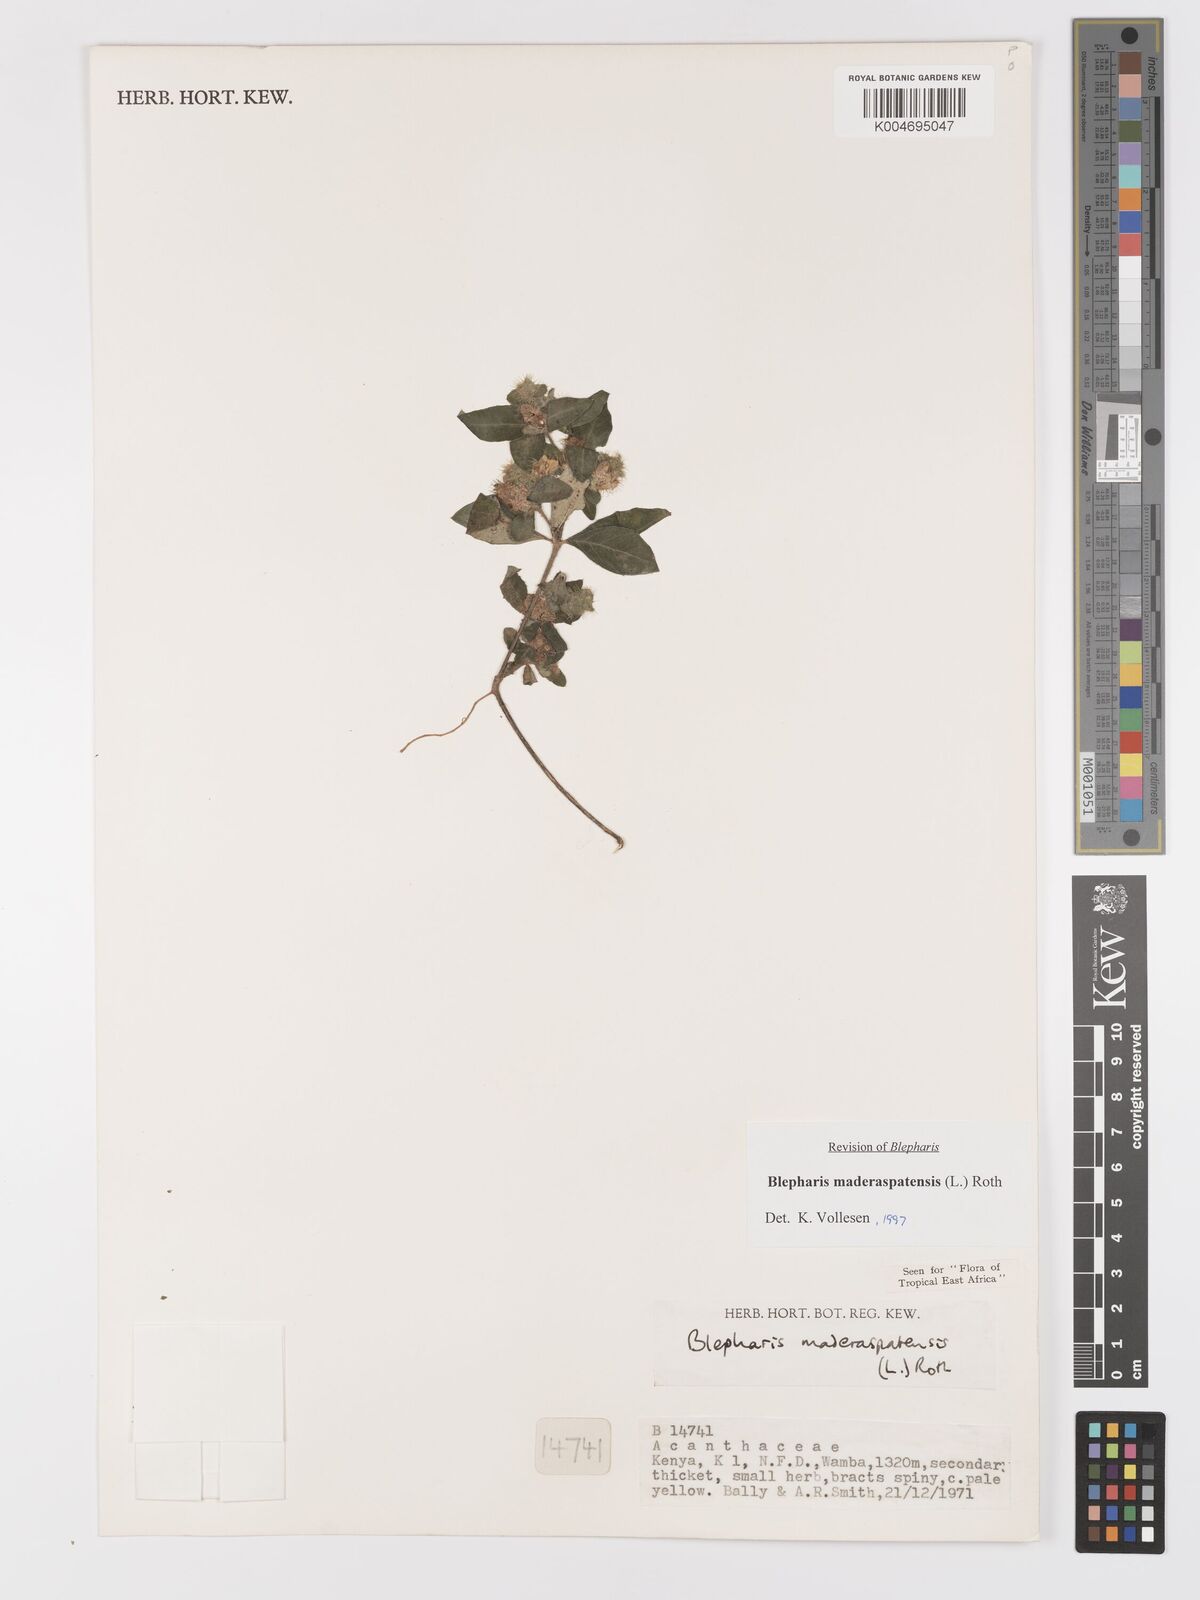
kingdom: Plantae
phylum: Tracheophyta
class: Magnoliopsida
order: Lamiales
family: Acanthaceae
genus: Blepharis
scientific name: Blepharis maderaspatensis
